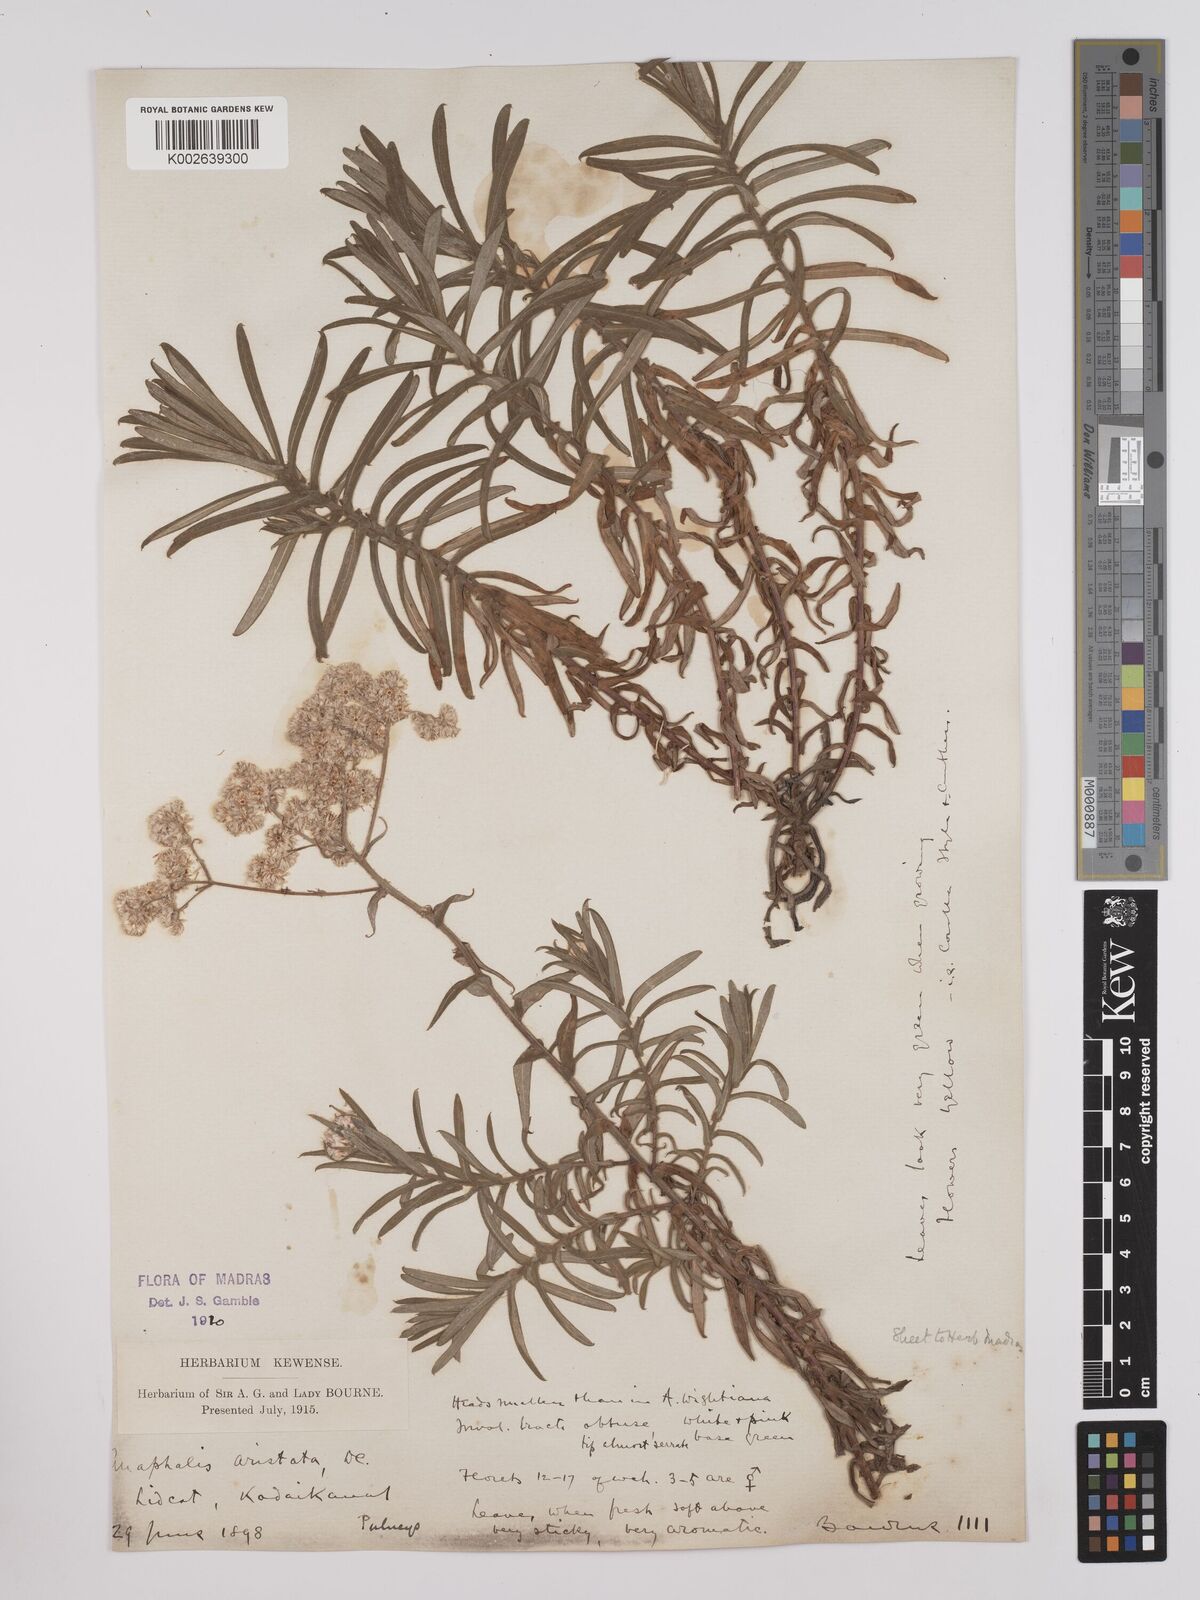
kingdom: Plantae
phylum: Tracheophyta
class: Magnoliopsida
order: Asterales
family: Asteraceae
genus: Anaphalis
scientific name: Anaphalis aristata
